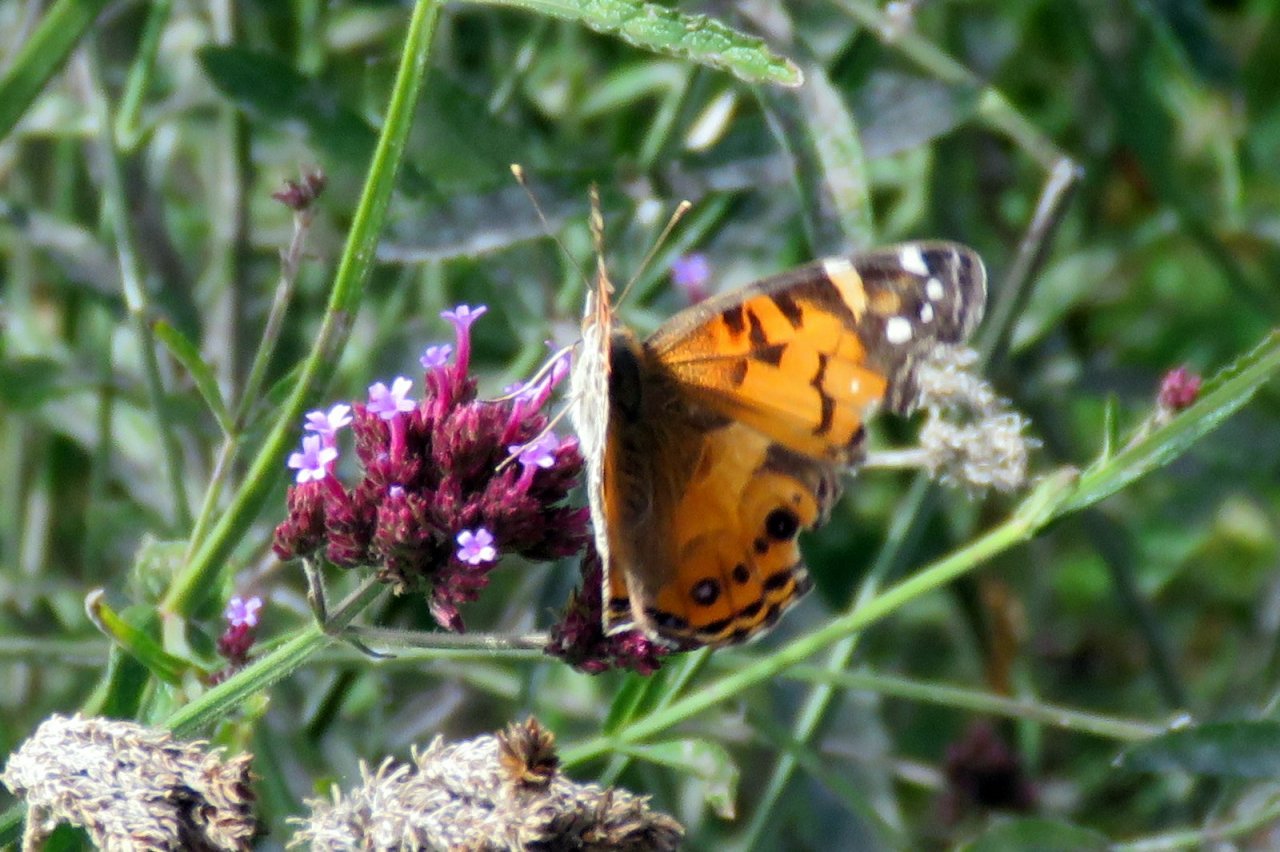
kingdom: Animalia
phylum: Arthropoda
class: Insecta
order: Lepidoptera
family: Nymphalidae
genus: Vanessa
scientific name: Vanessa virginiensis
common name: American Lady
